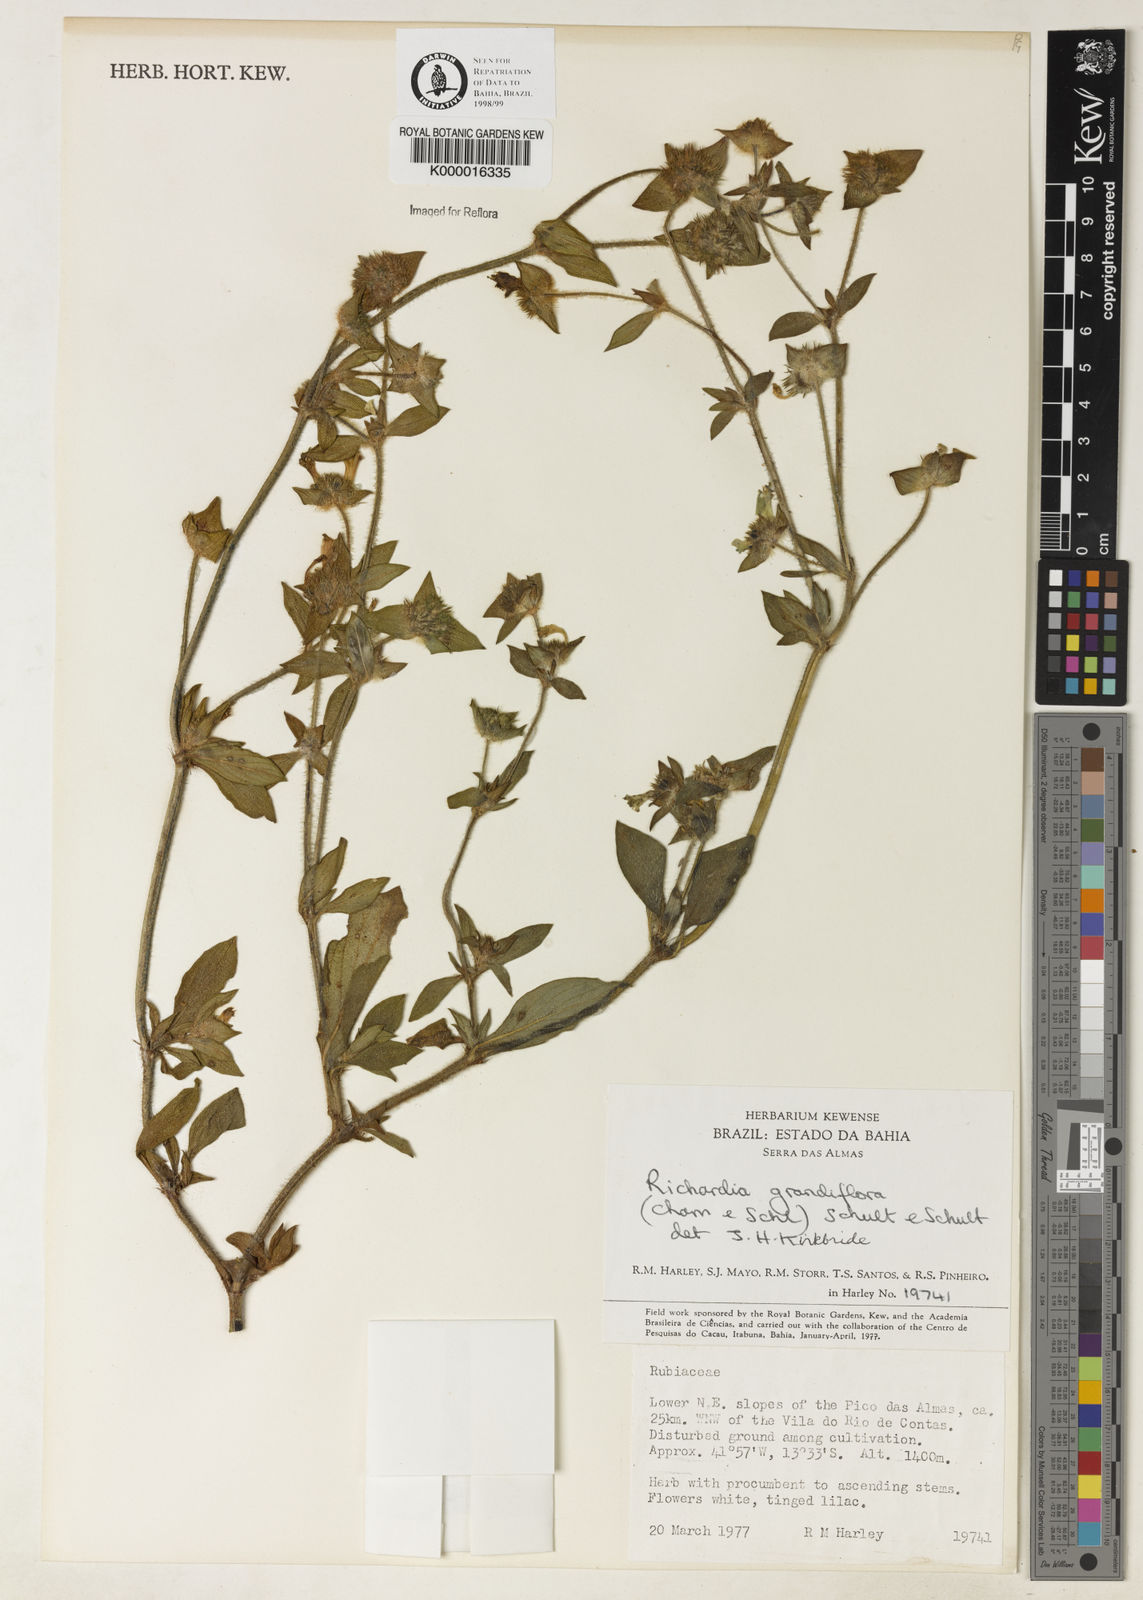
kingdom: Plantae
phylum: Tracheophyta
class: Magnoliopsida
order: Gentianales
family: Rubiaceae
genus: Richardia
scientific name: Richardia grandiflora
